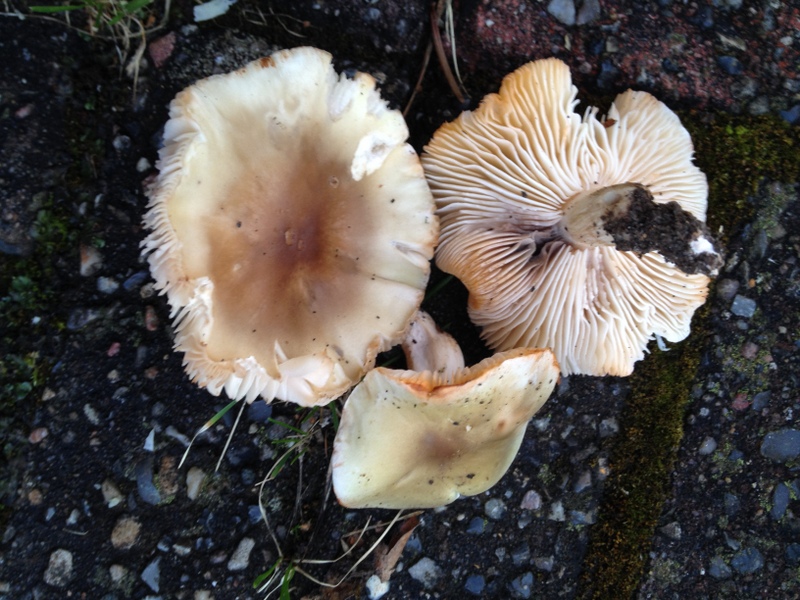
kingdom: Fungi
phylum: Basidiomycota
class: Agaricomycetes
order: Agaricales
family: Tricholomataceae
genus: Tricholoma
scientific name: Tricholoma saponaceum
